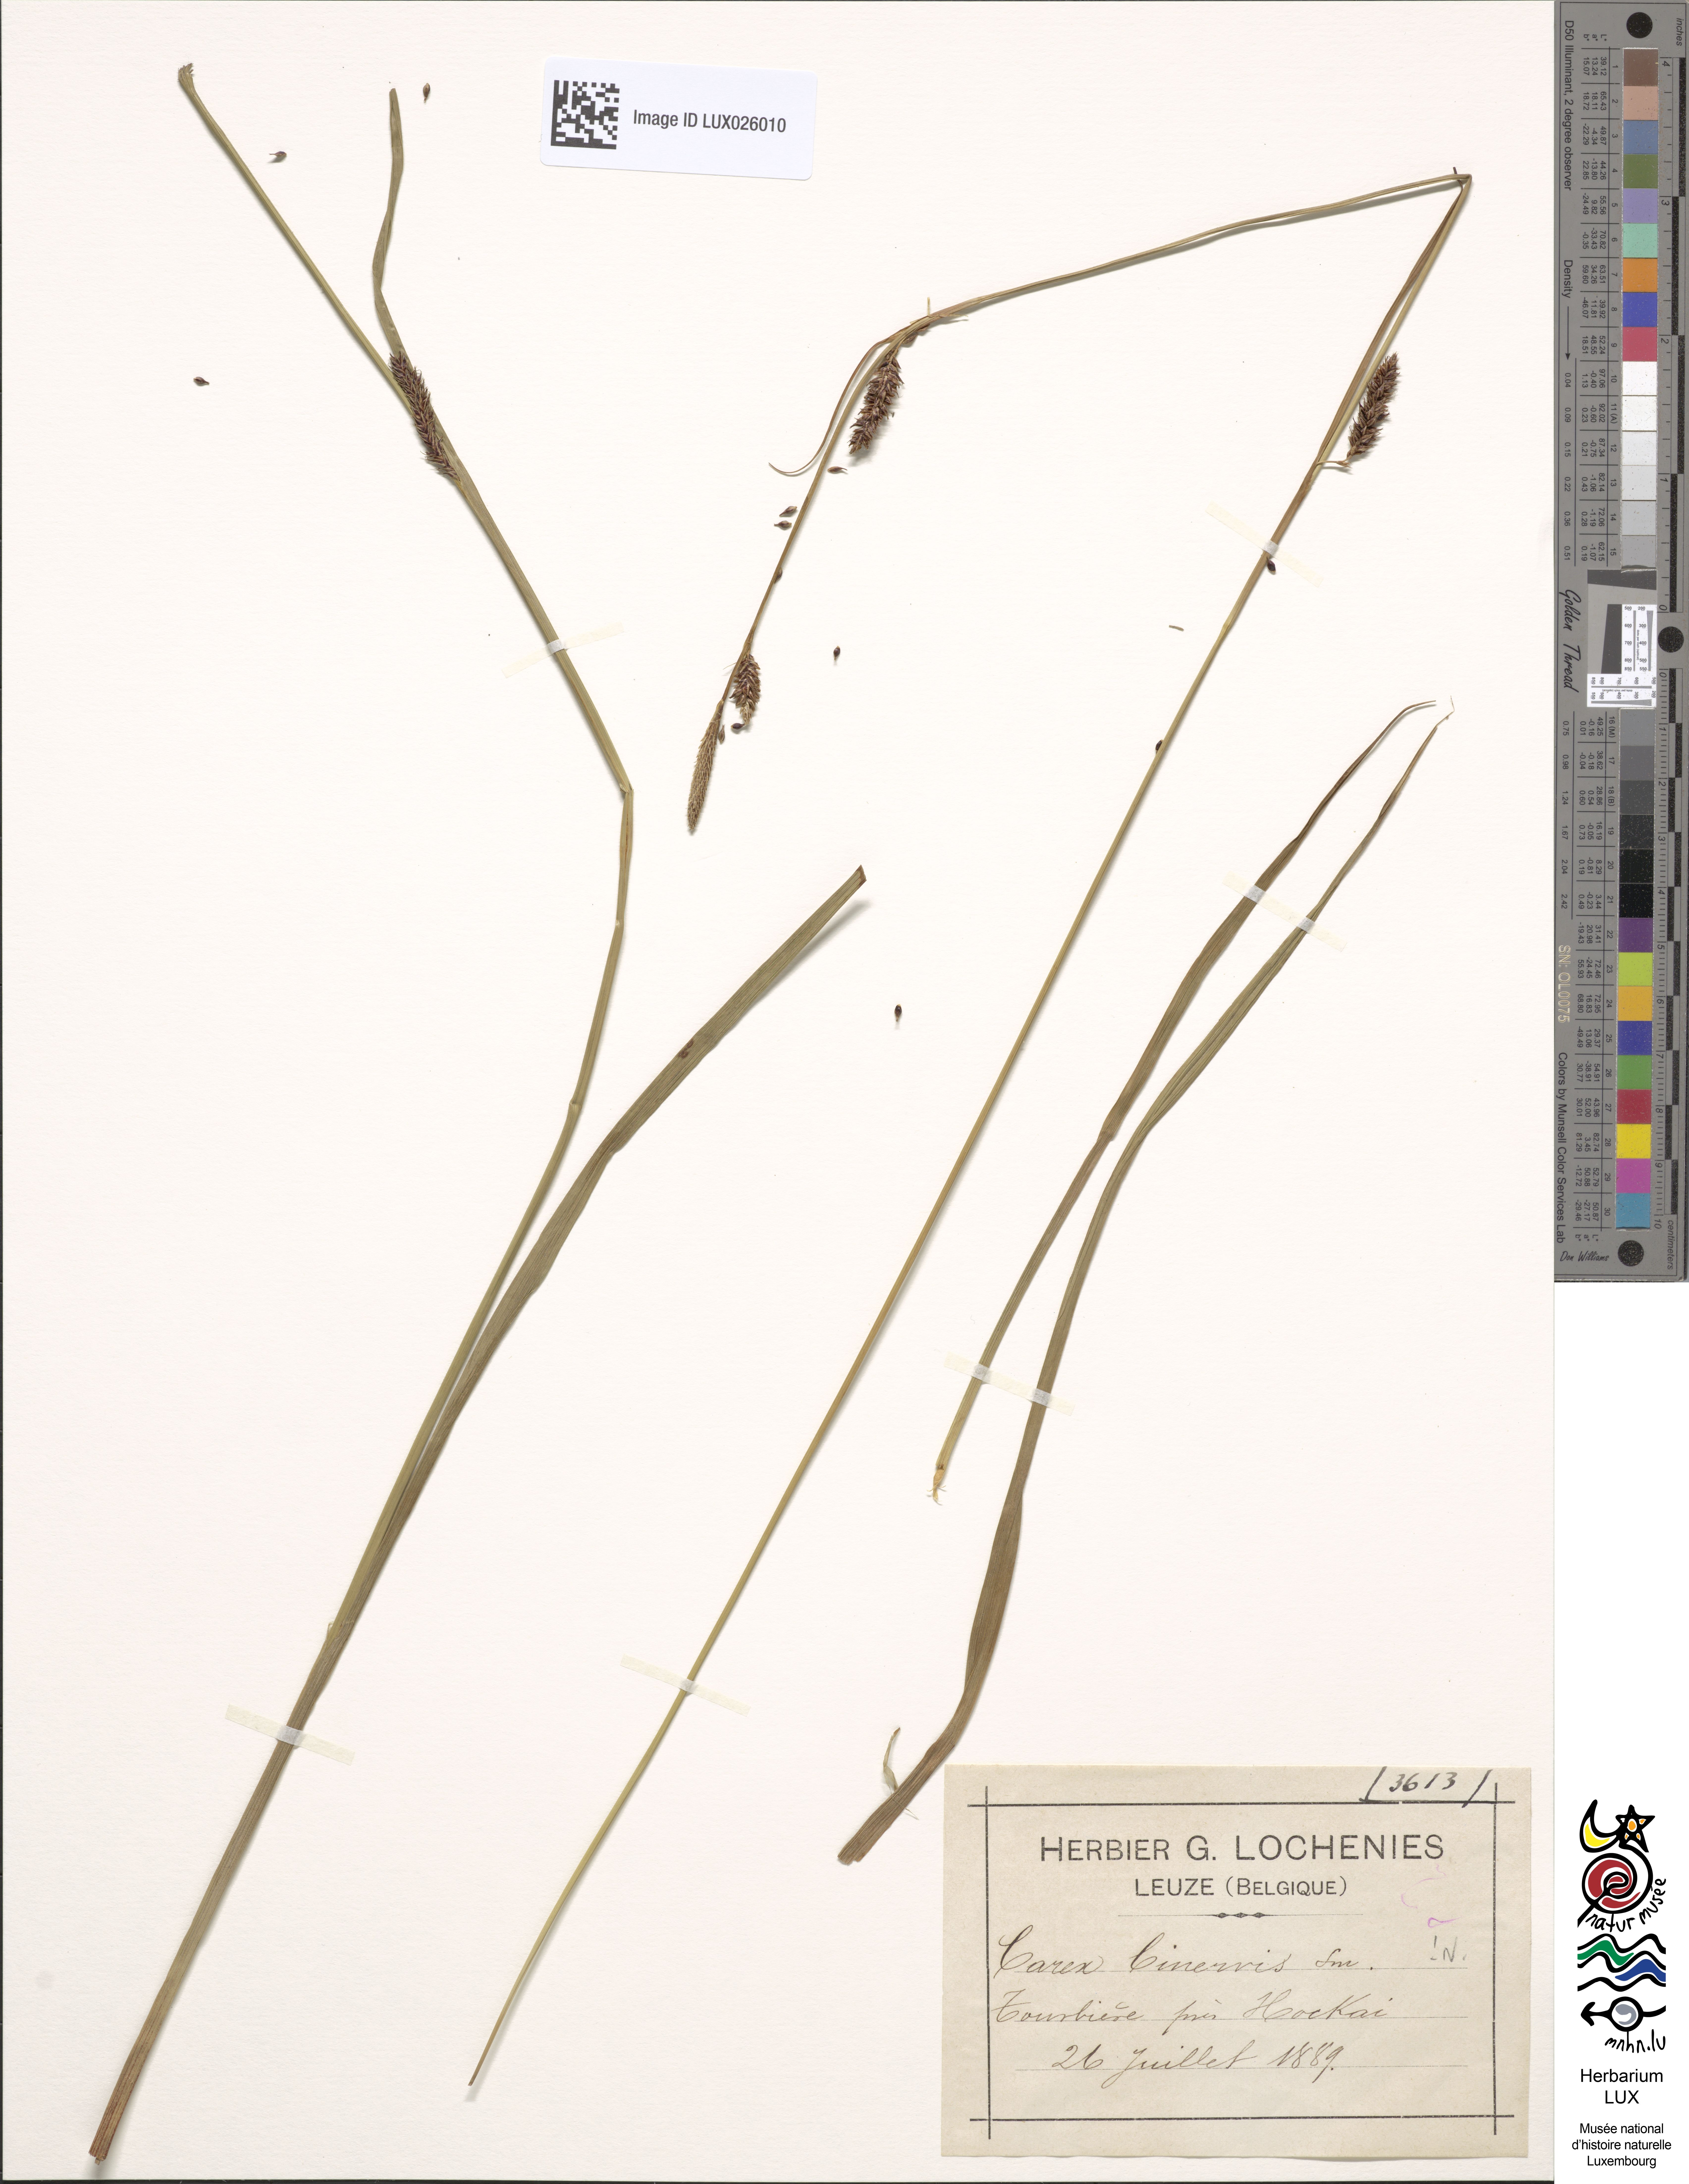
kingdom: Plantae
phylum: Tracheophyta
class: Liliopsida
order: Poales
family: Cyperaceae
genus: Carex
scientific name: Carex binervis
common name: Green-ribbed sedge
